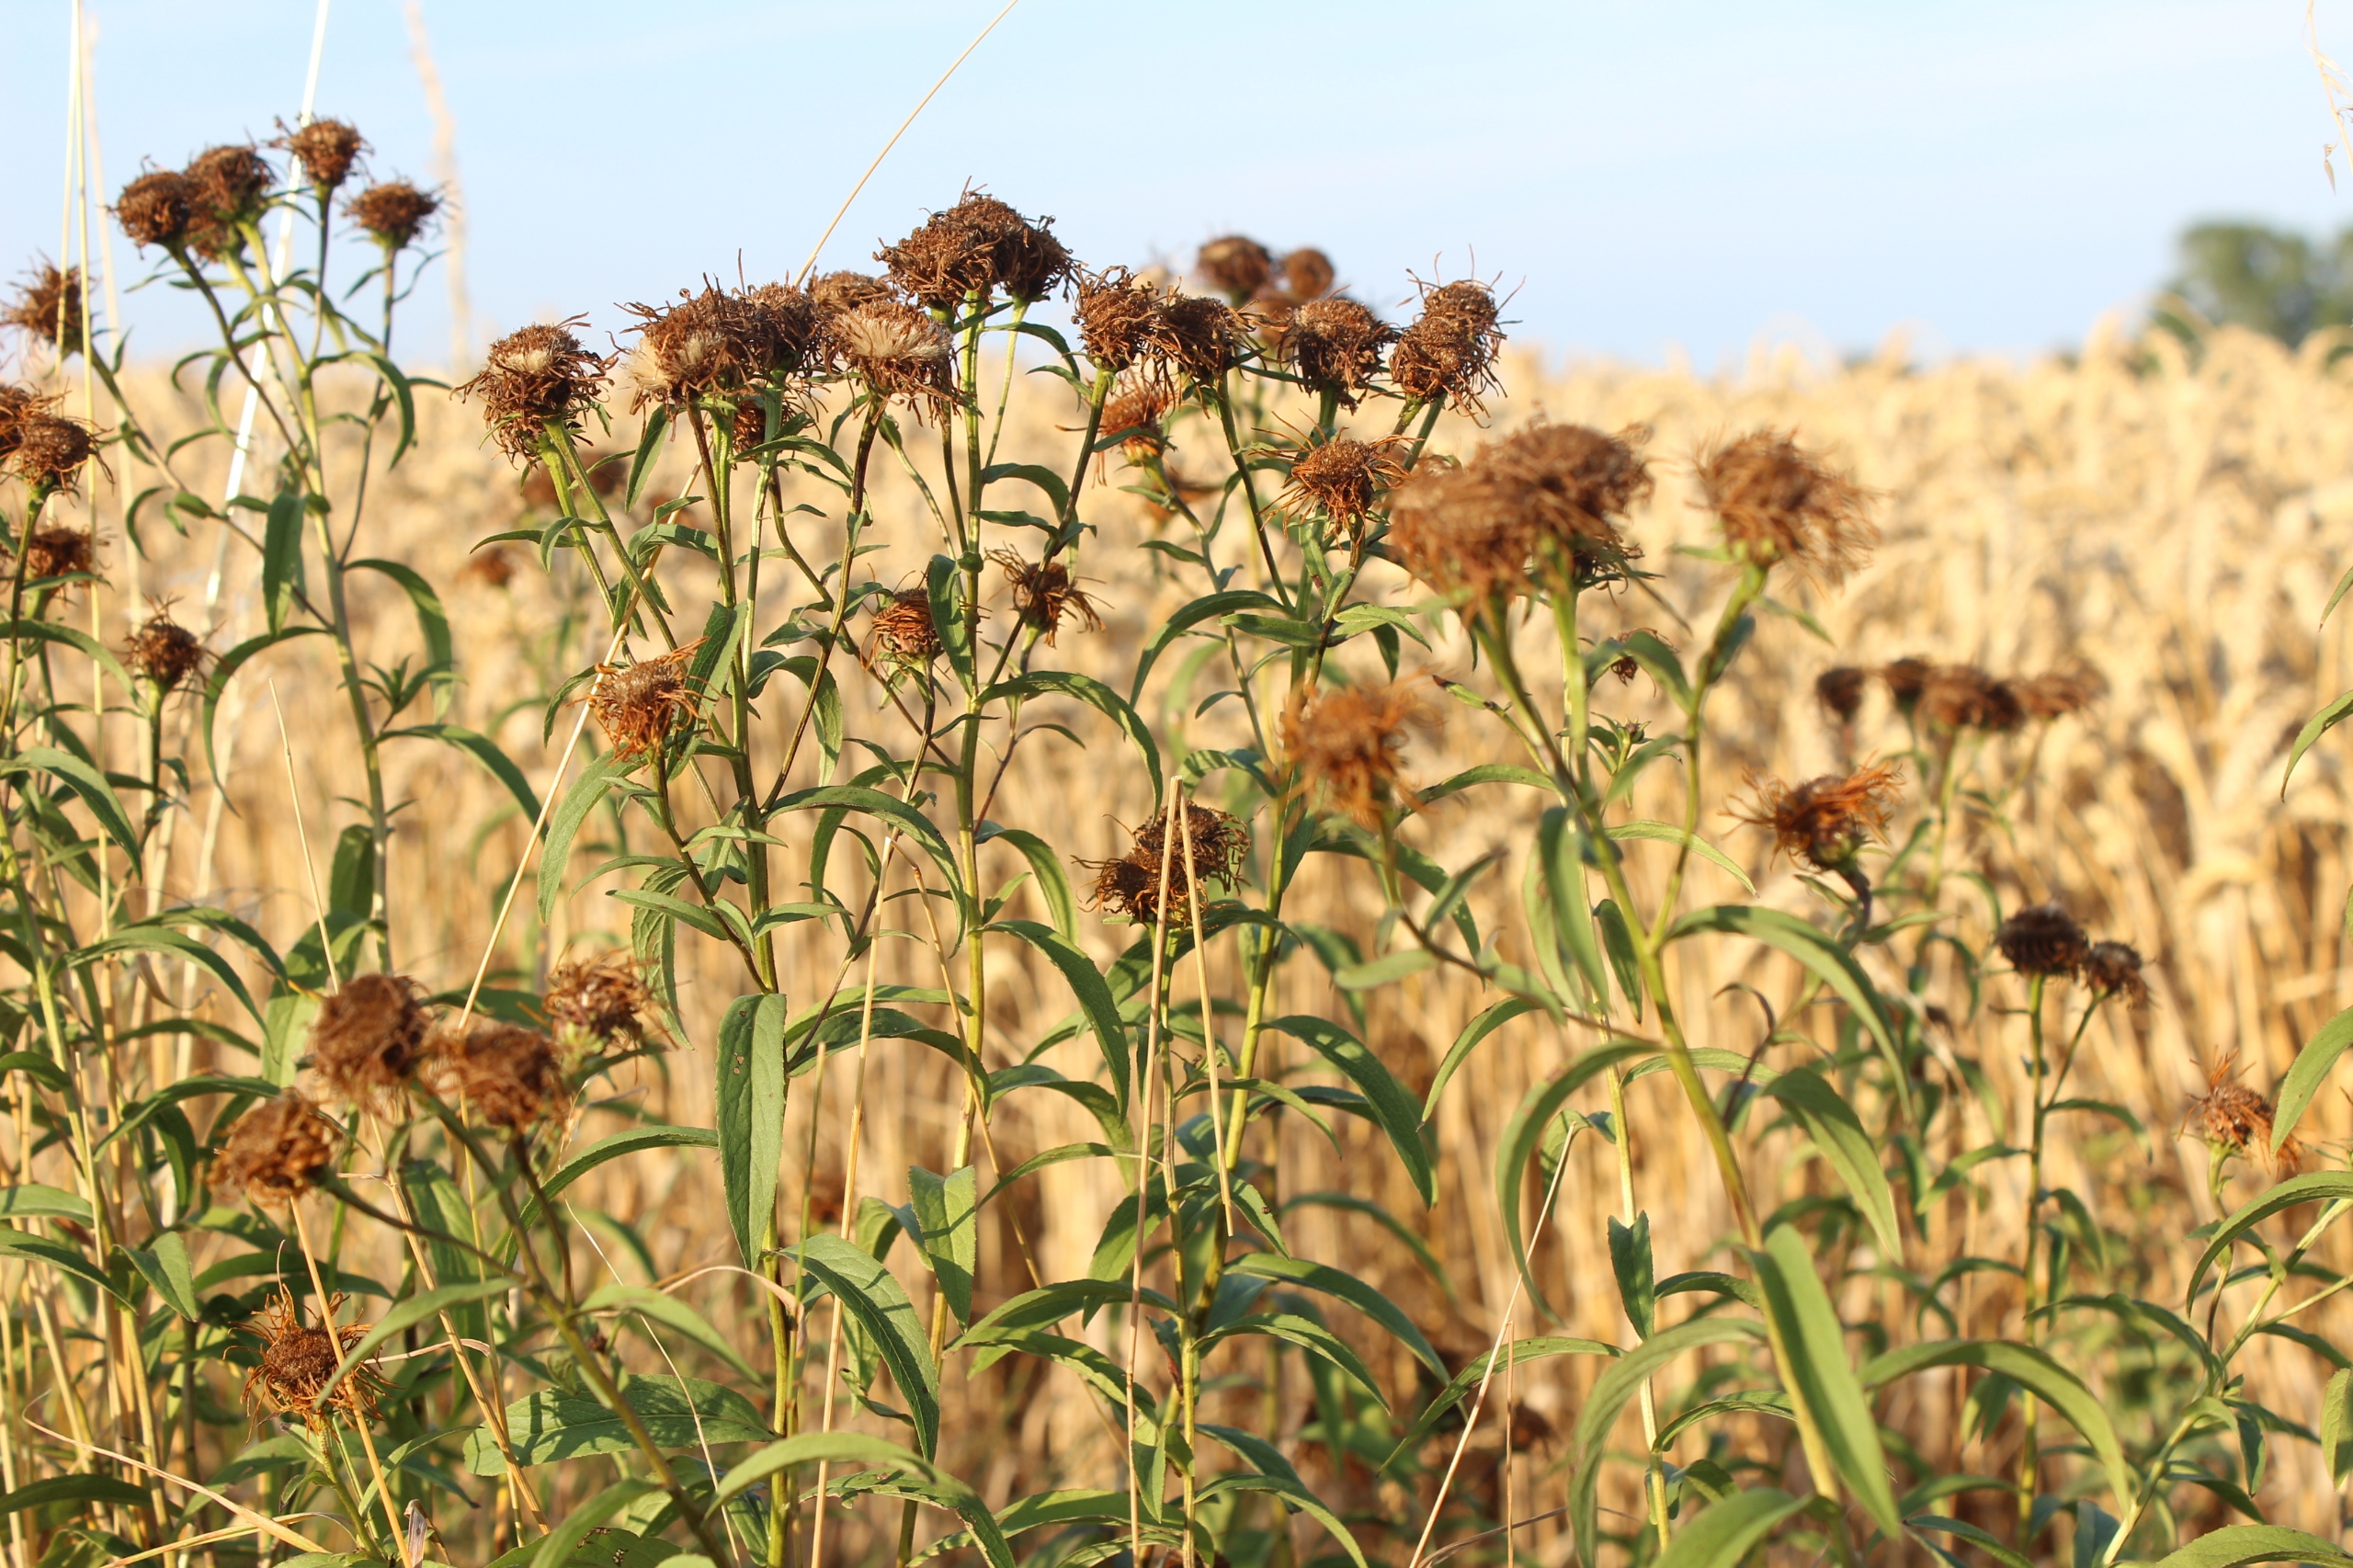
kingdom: Plantae
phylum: Tracheophyta
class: Magnoliopsida
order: Asterales
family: Asteraceae
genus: Pentanema
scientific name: Pentanema salicinum
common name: Pile-alant
